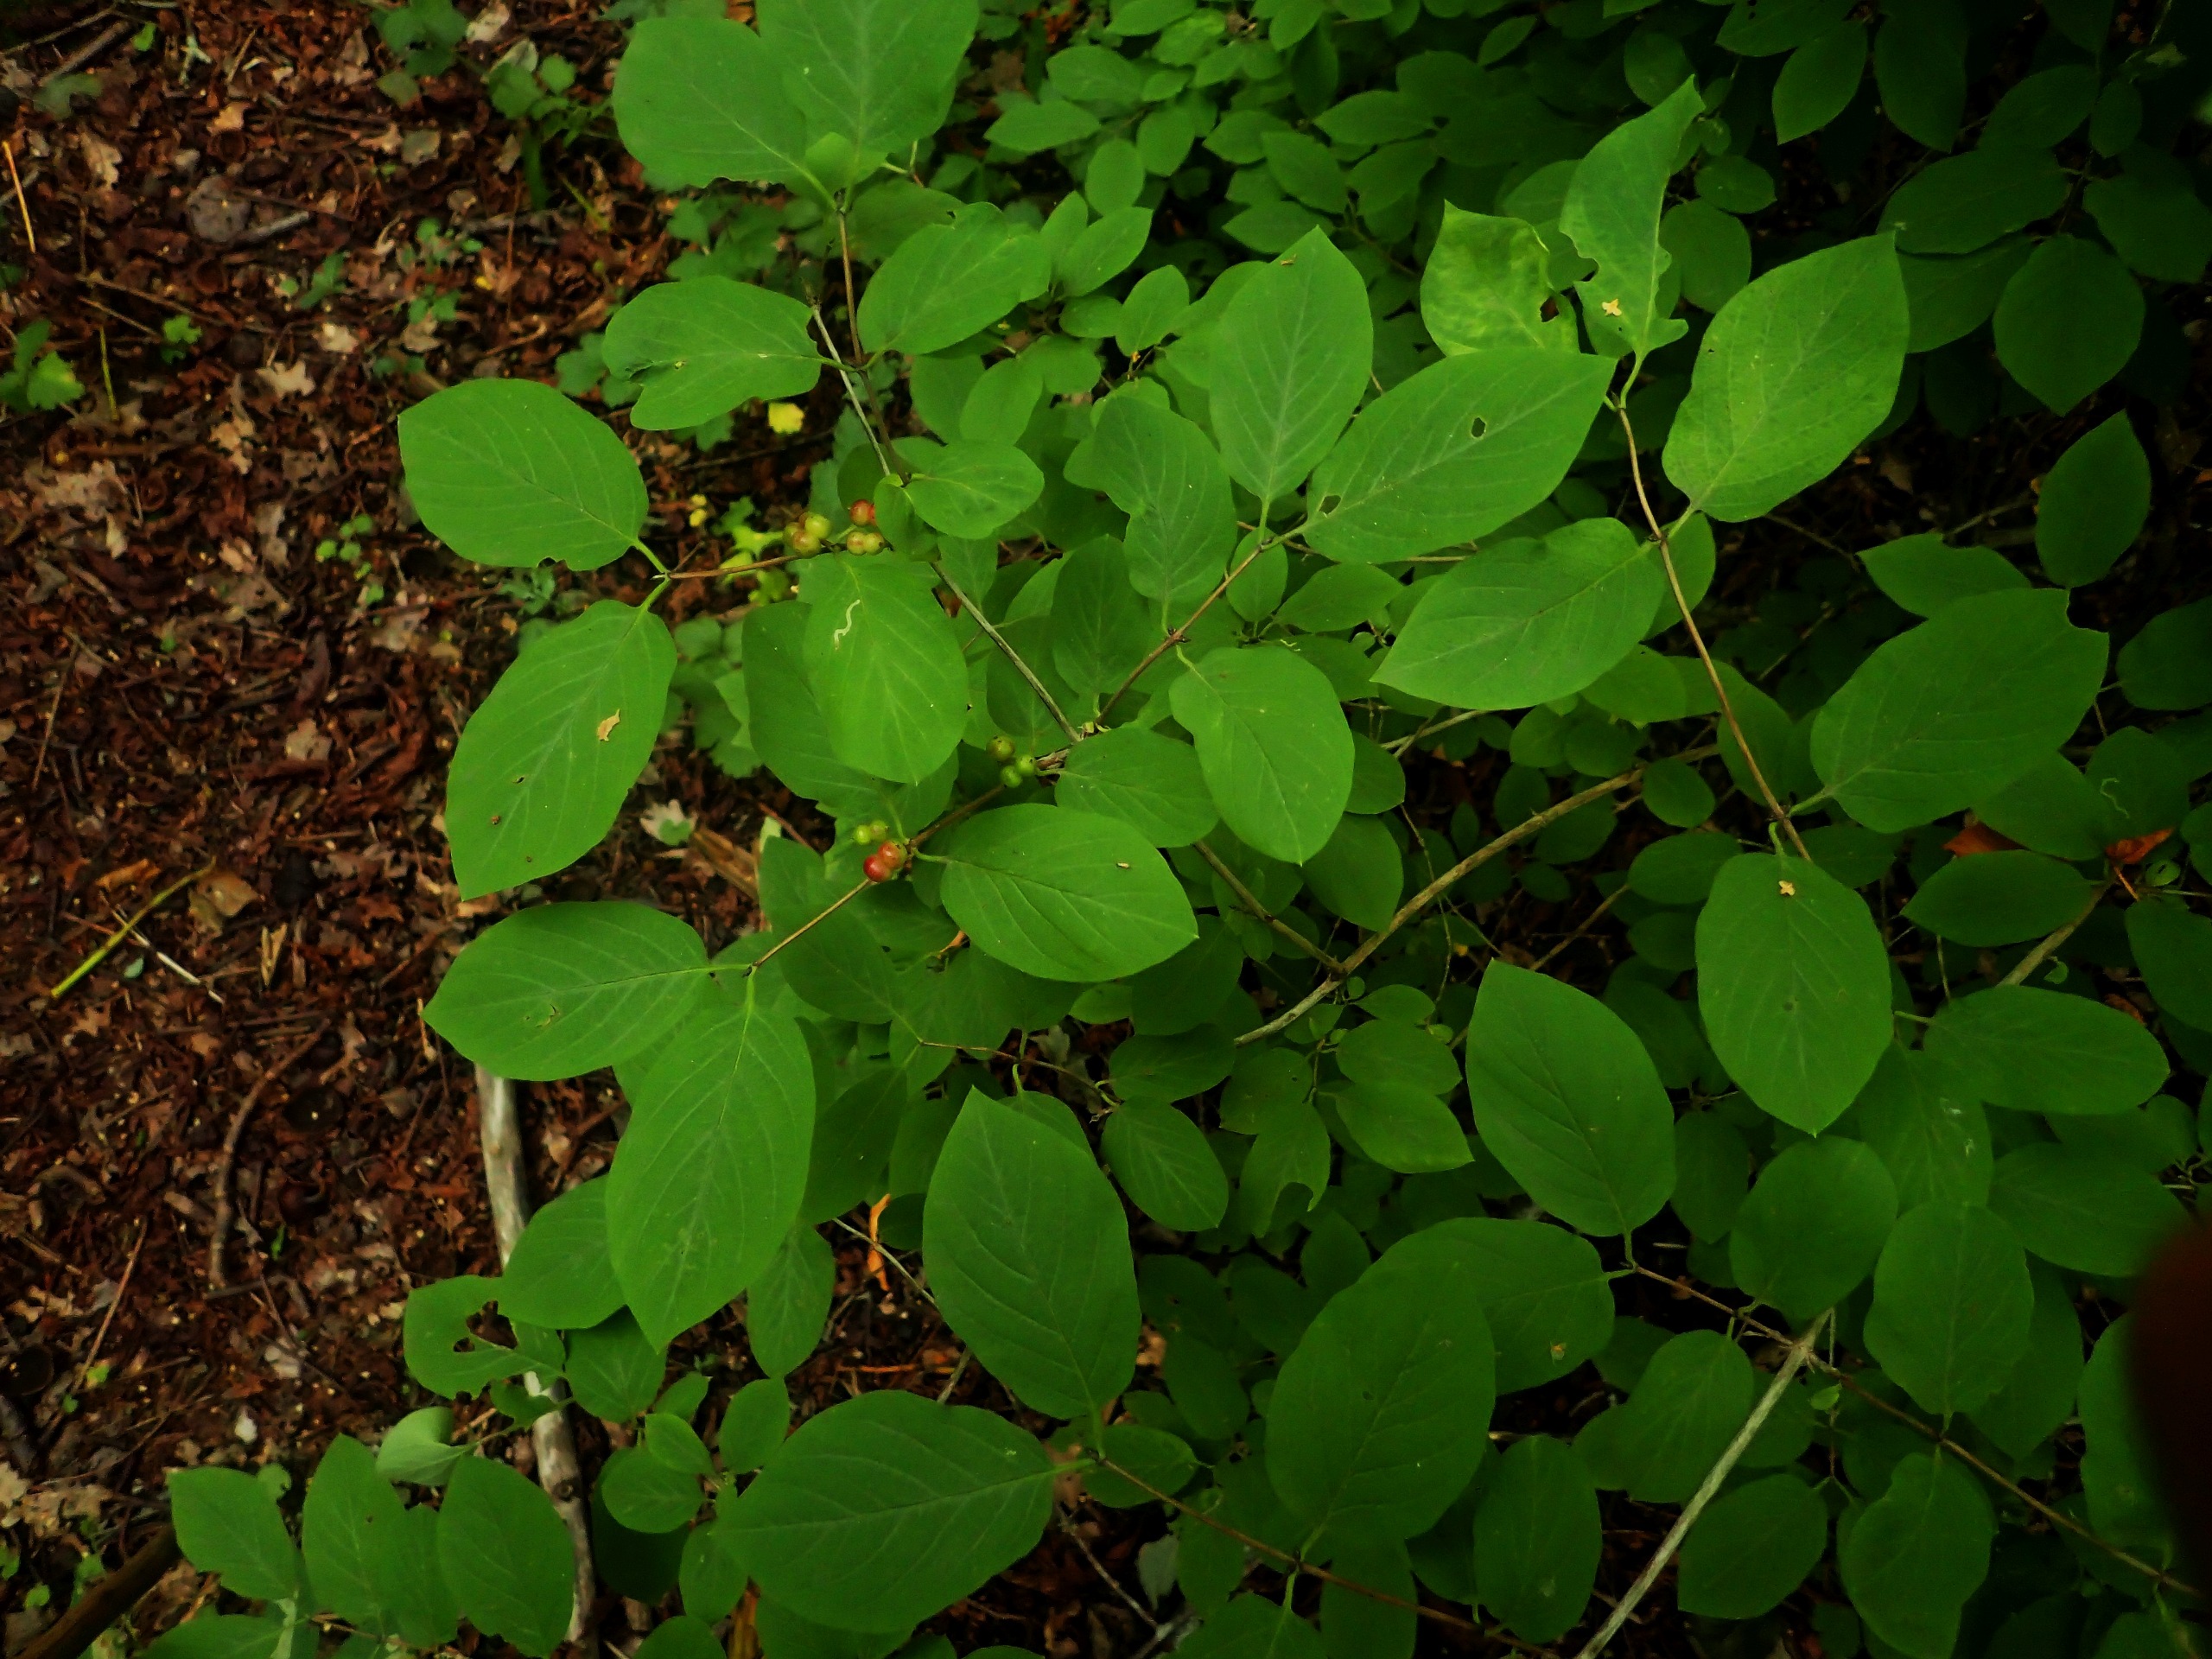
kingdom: Plantae
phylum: Tracheophyta
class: Magnoliopsida
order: Dipsacales
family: Caprifoliaceae
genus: Lonicera
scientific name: Lonicera
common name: Gedebladslægten
